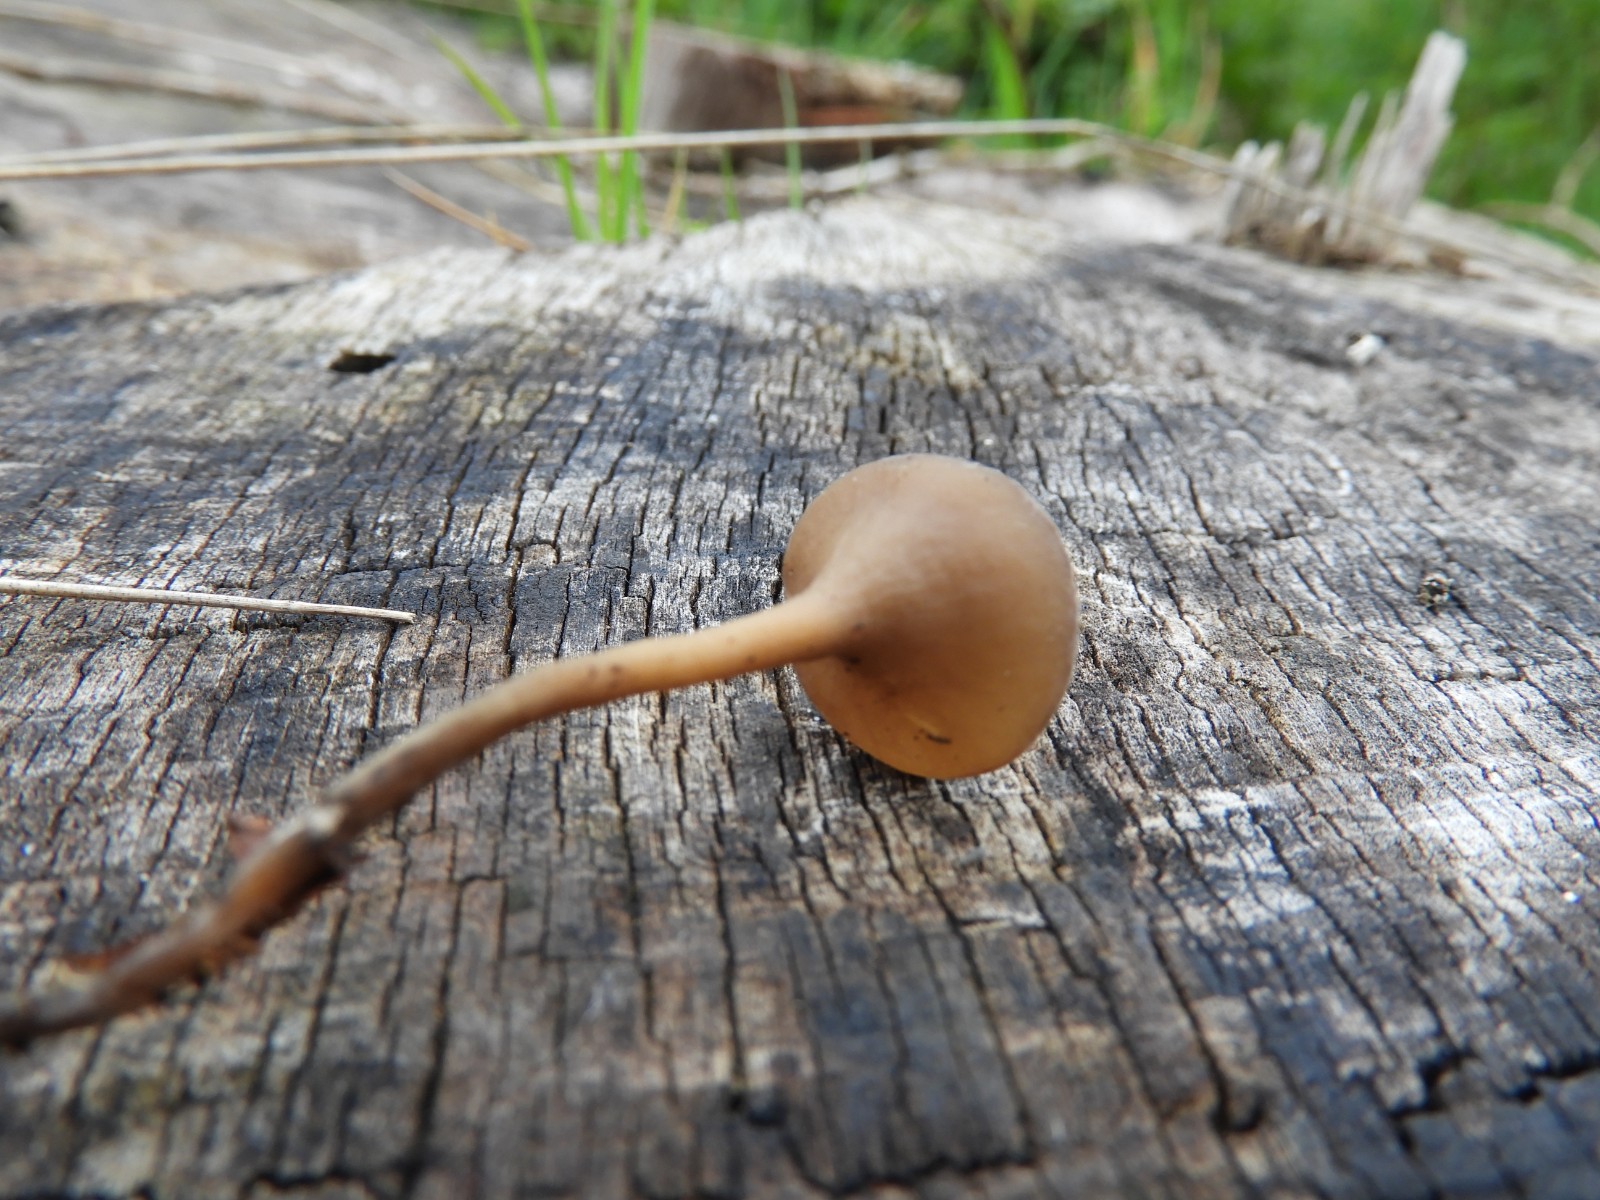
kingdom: Fungi
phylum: Ascomycota
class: Leotiomycetes
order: Helotiales
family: Sclerotiniaceae
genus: Dumontinia
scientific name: Dumontinia tuberosa
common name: anemone-knoldskive
